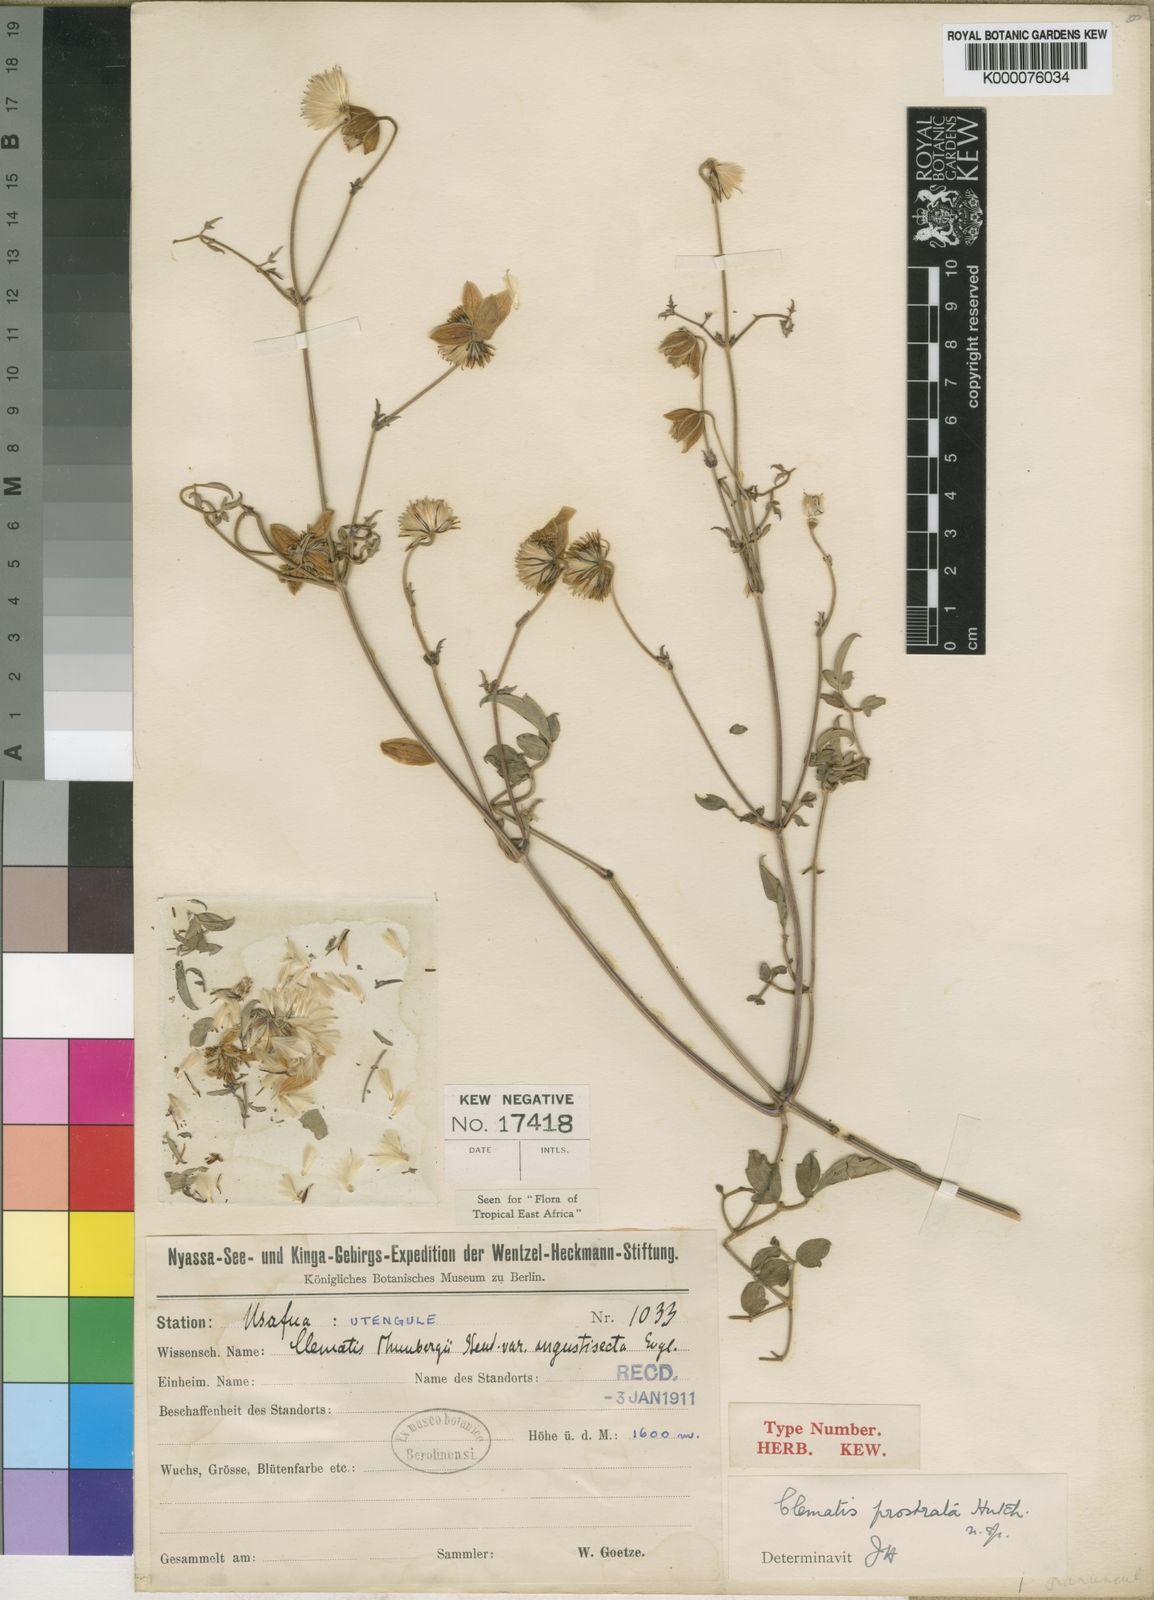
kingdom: Plantae
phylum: Tracheophyta
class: Magnoliopsida
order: Ranunculales
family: Ranunculaceae
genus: Clematis
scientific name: Clematis welwitschii
